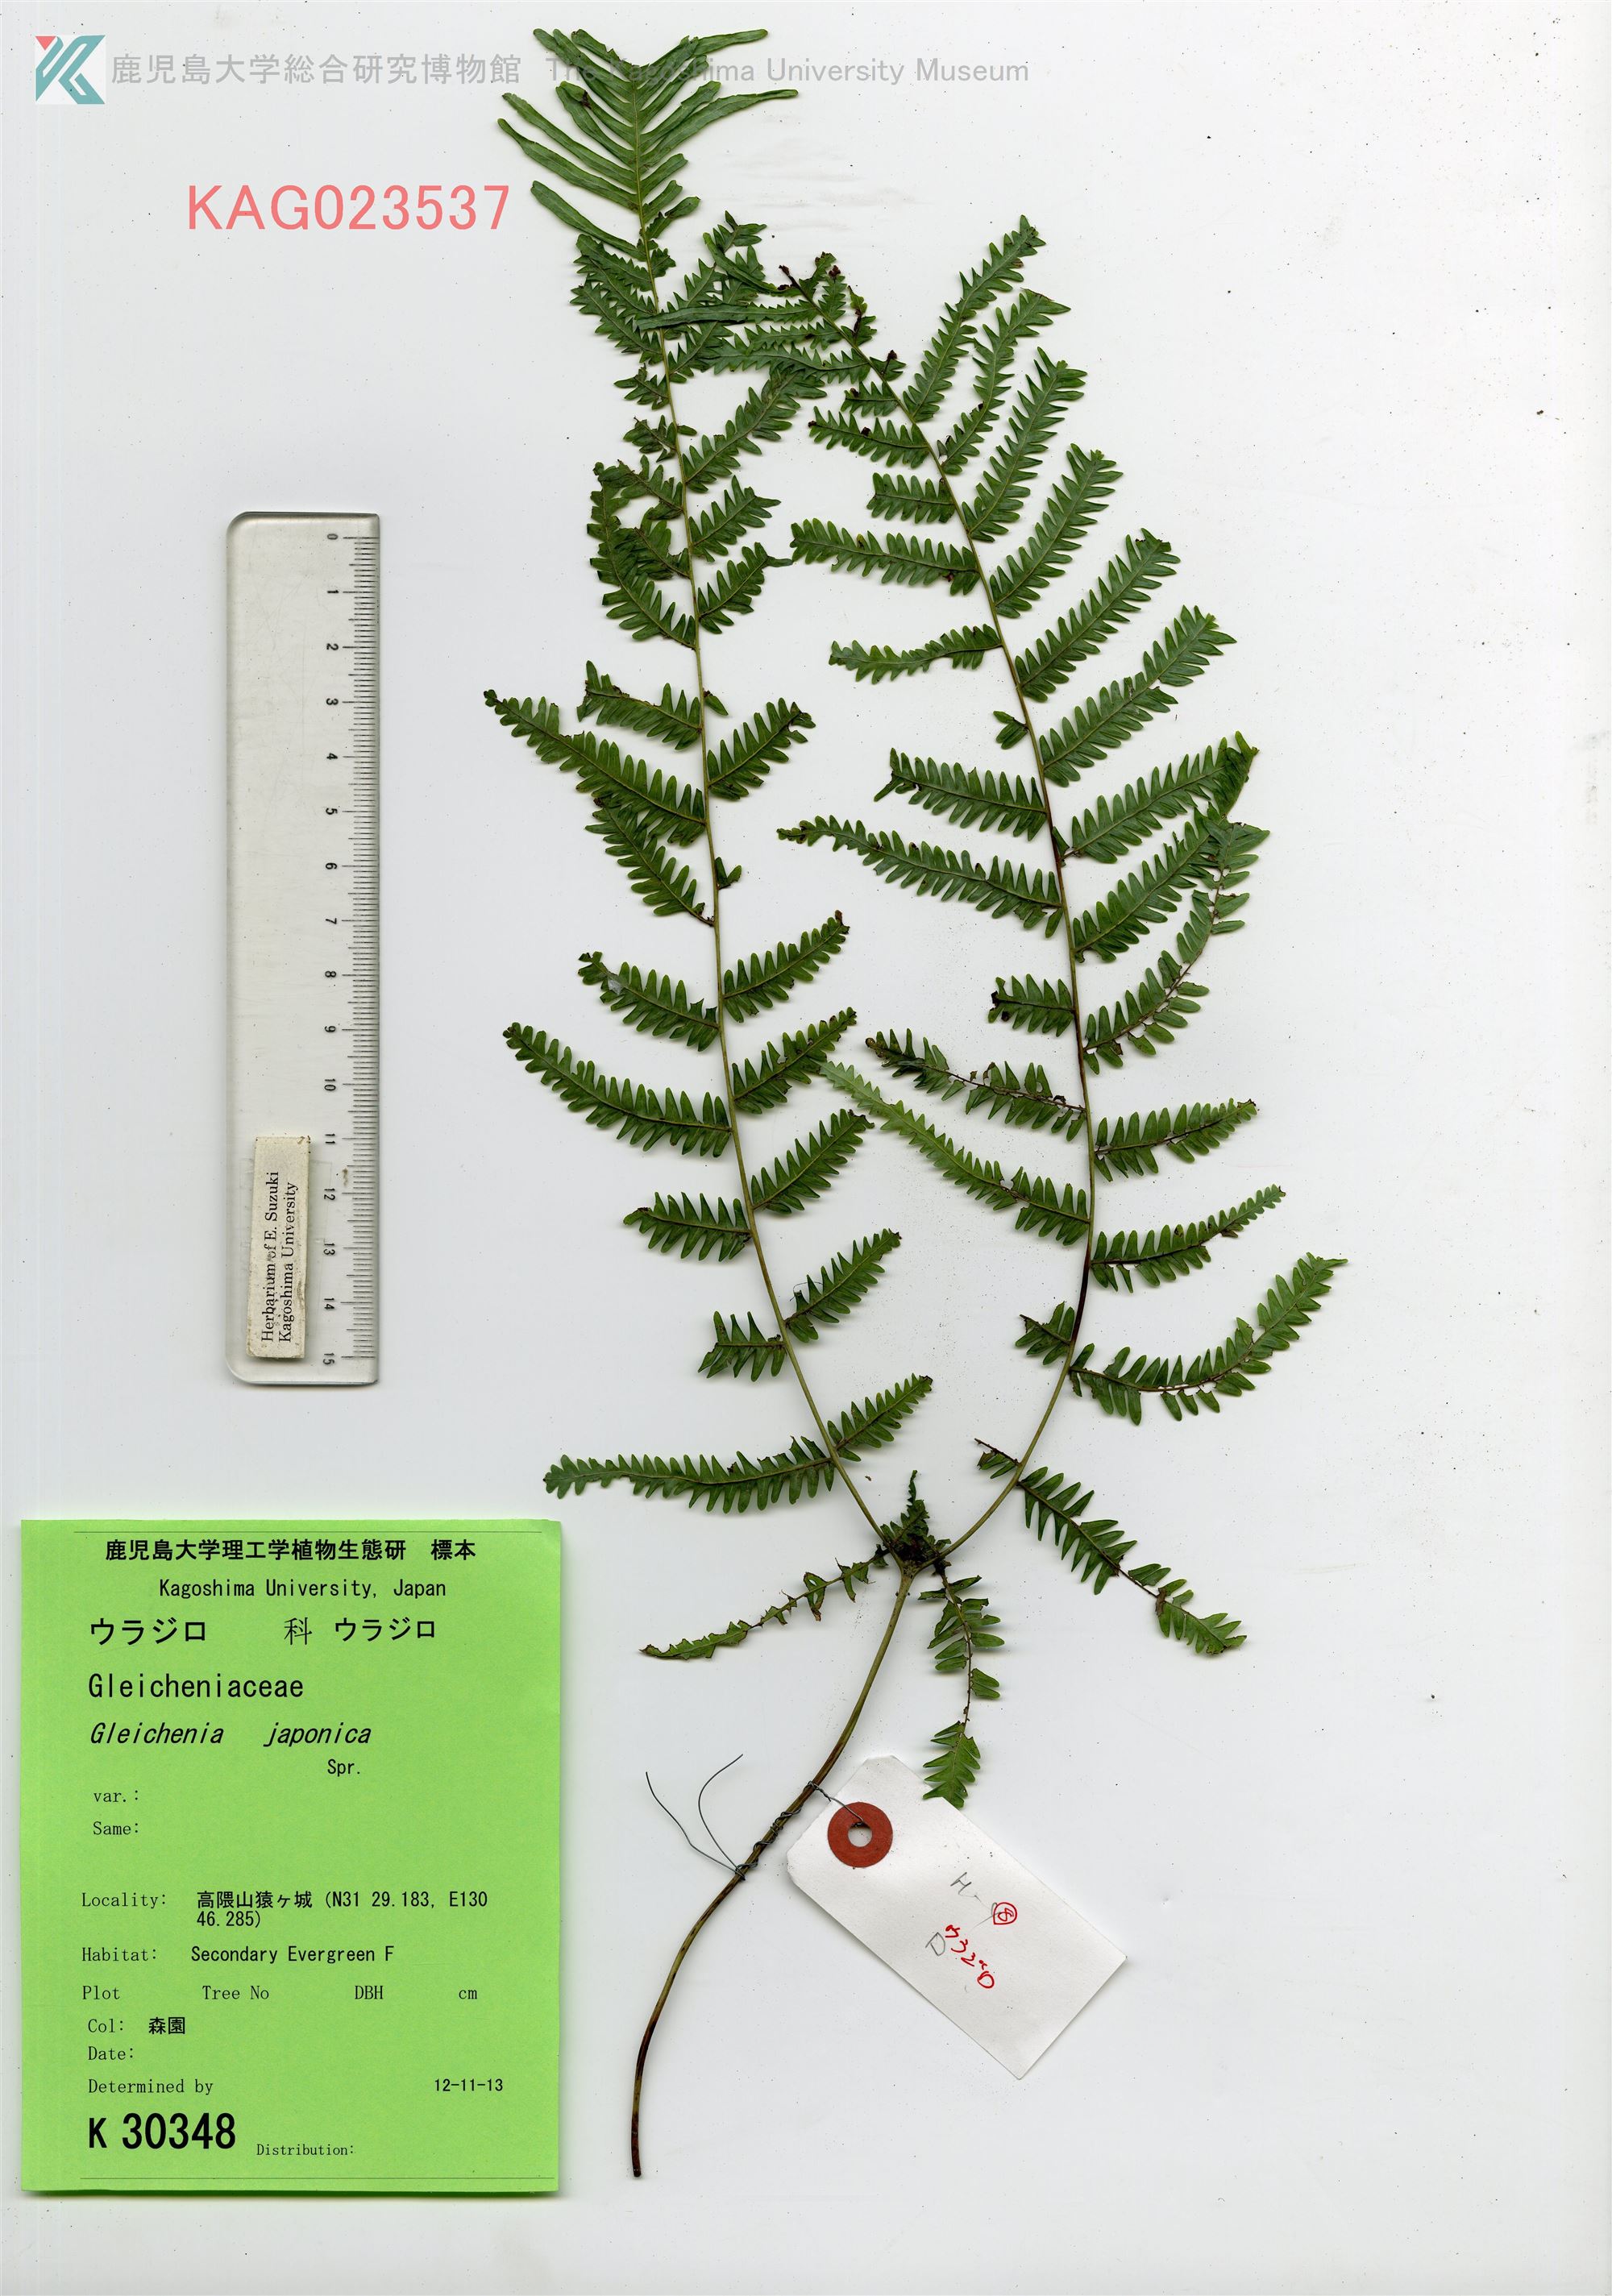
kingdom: Plantae
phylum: Tracheophyta
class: Polypodiopsida
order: Gleicheniales
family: Gleicheniaceae
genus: Diplopterygium
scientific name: Diplopterygium glaucum
